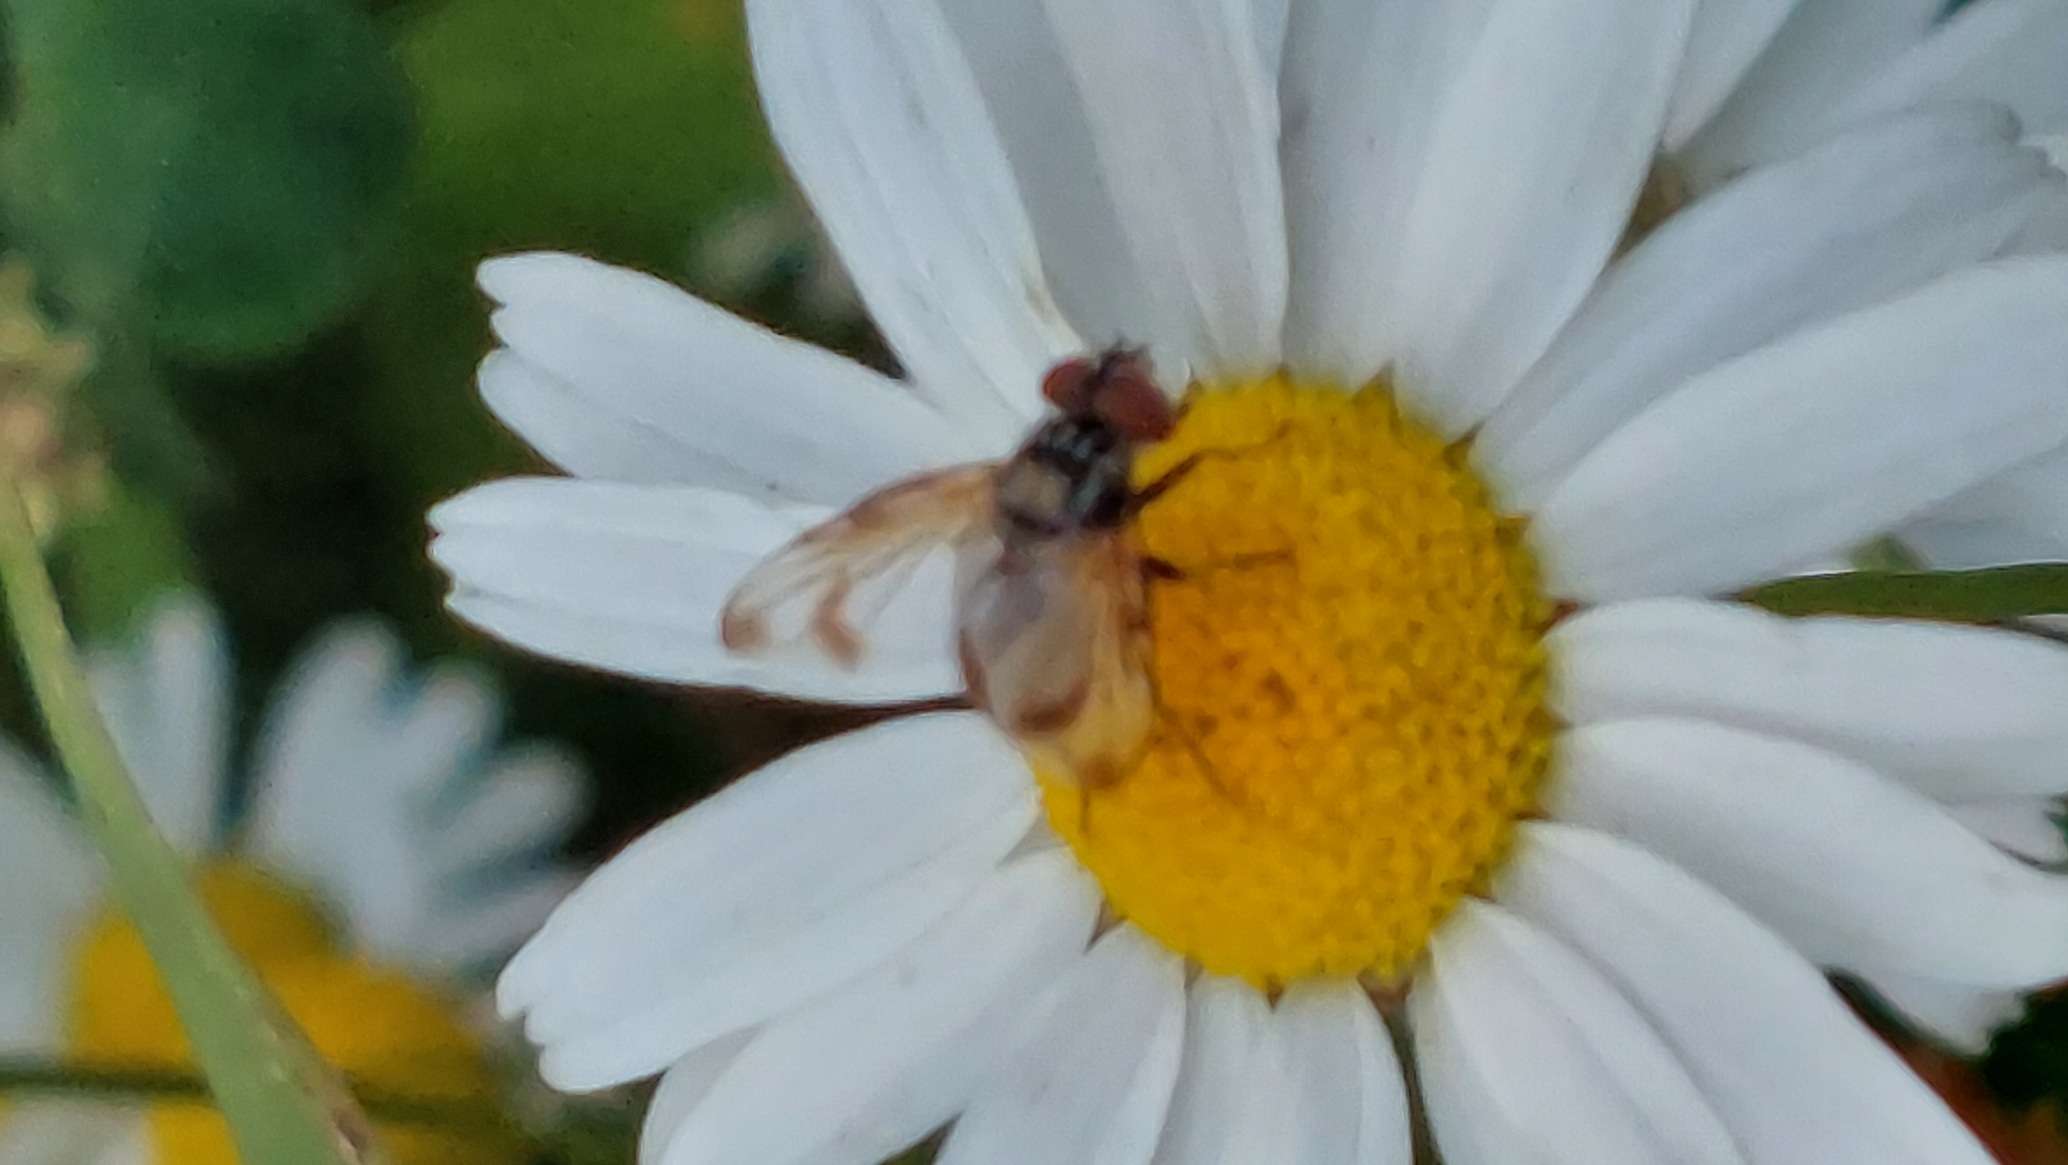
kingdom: Animalia
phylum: Arthropoda
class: Insecta
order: Diptera
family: Tachinidae
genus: Phasia
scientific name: Phasia obesa
